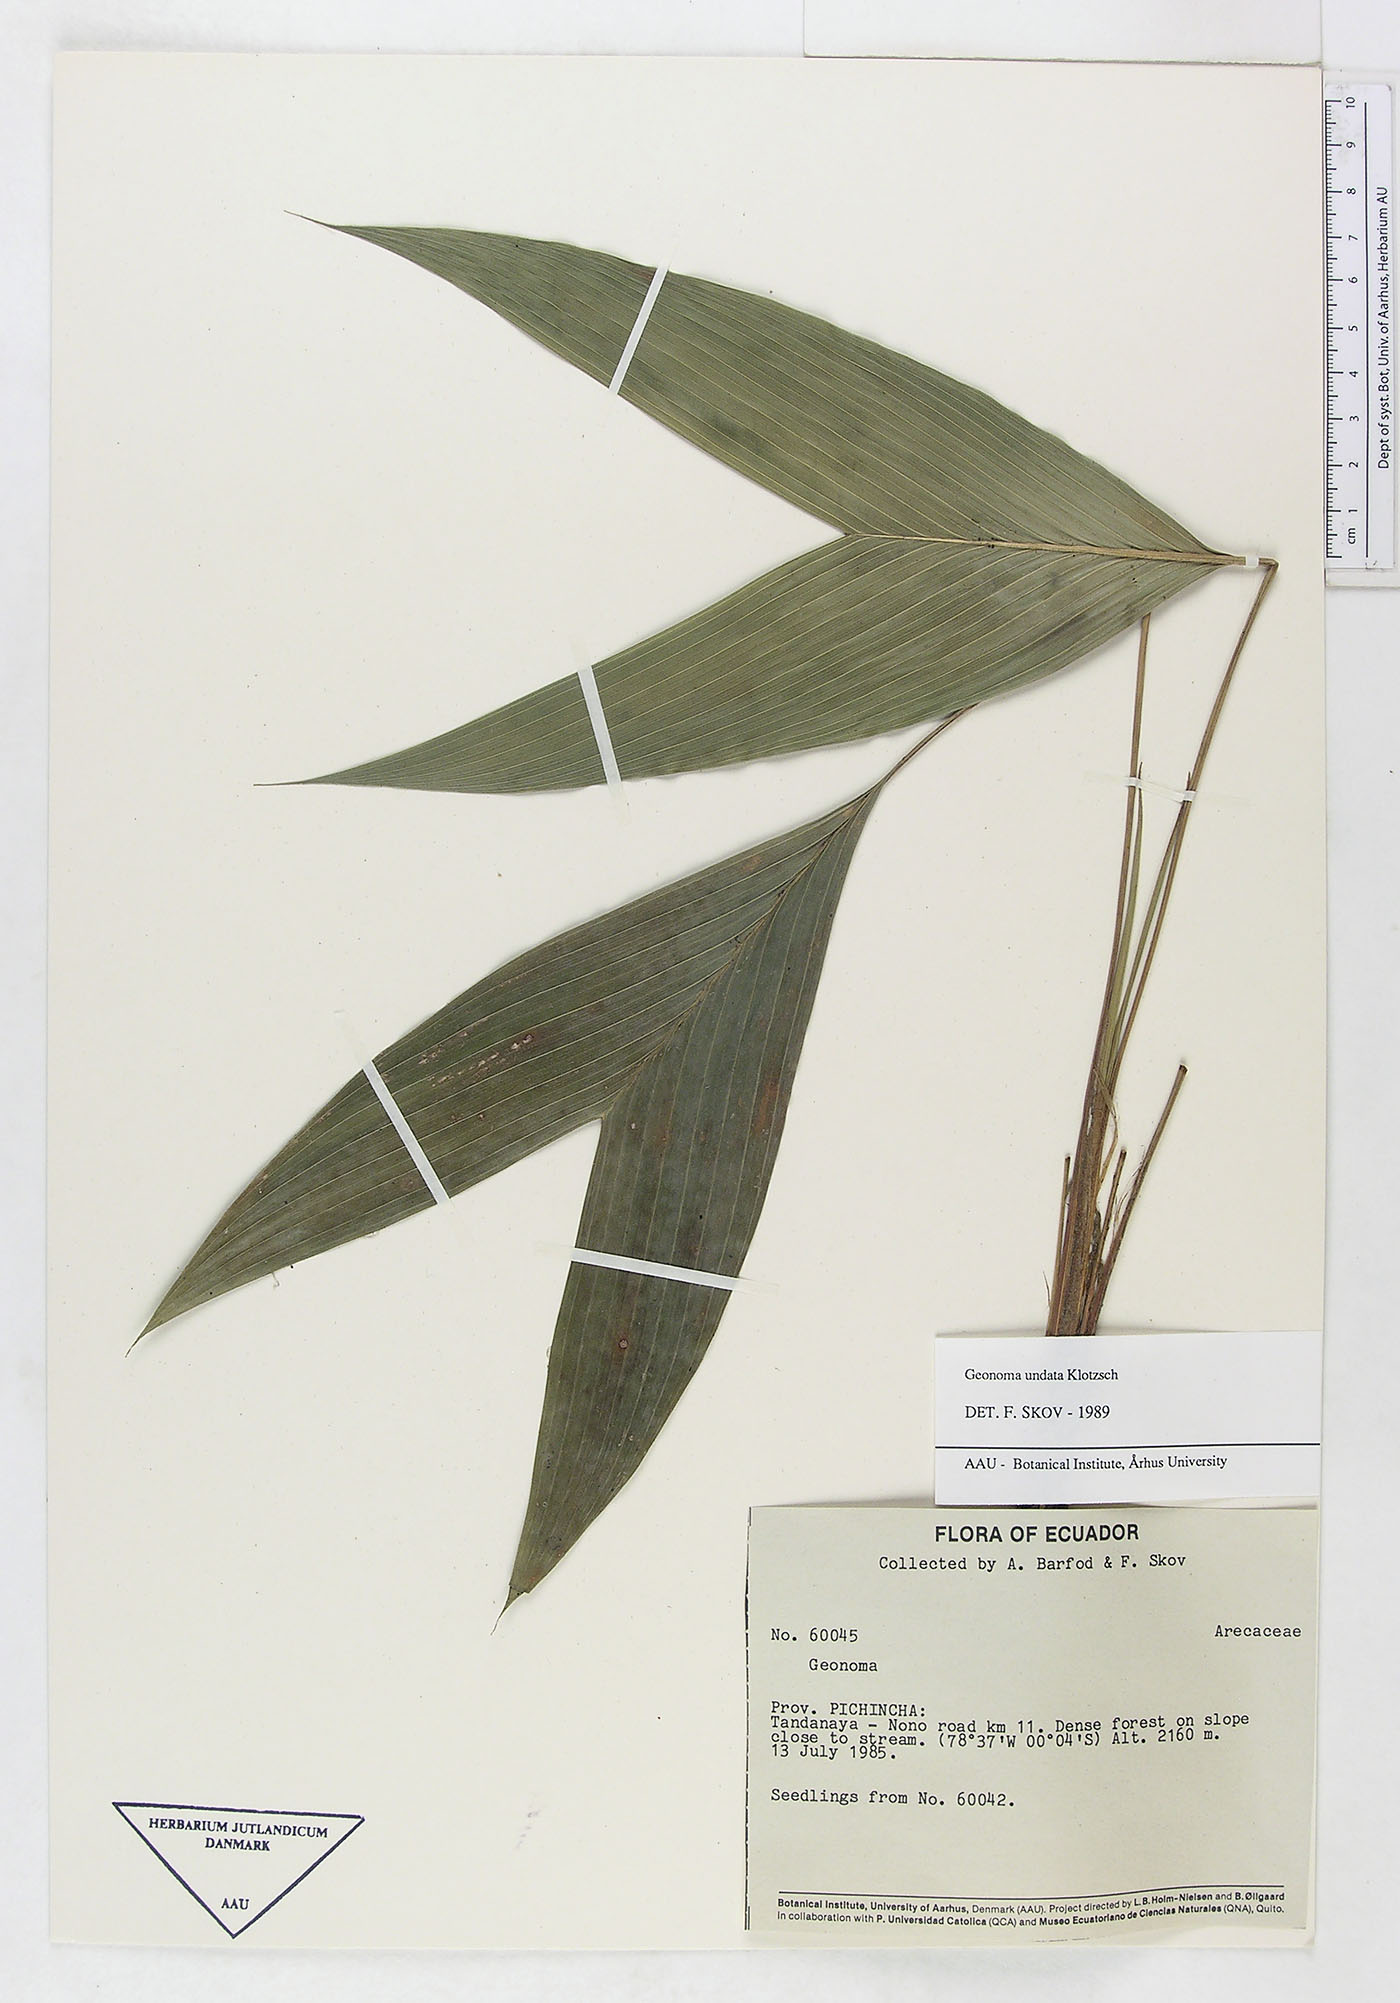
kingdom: Plantae
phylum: Tracheophyta
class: Liliopsida
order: Arecales
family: Arecaceae
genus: Geonoma
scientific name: Geonoma undata
